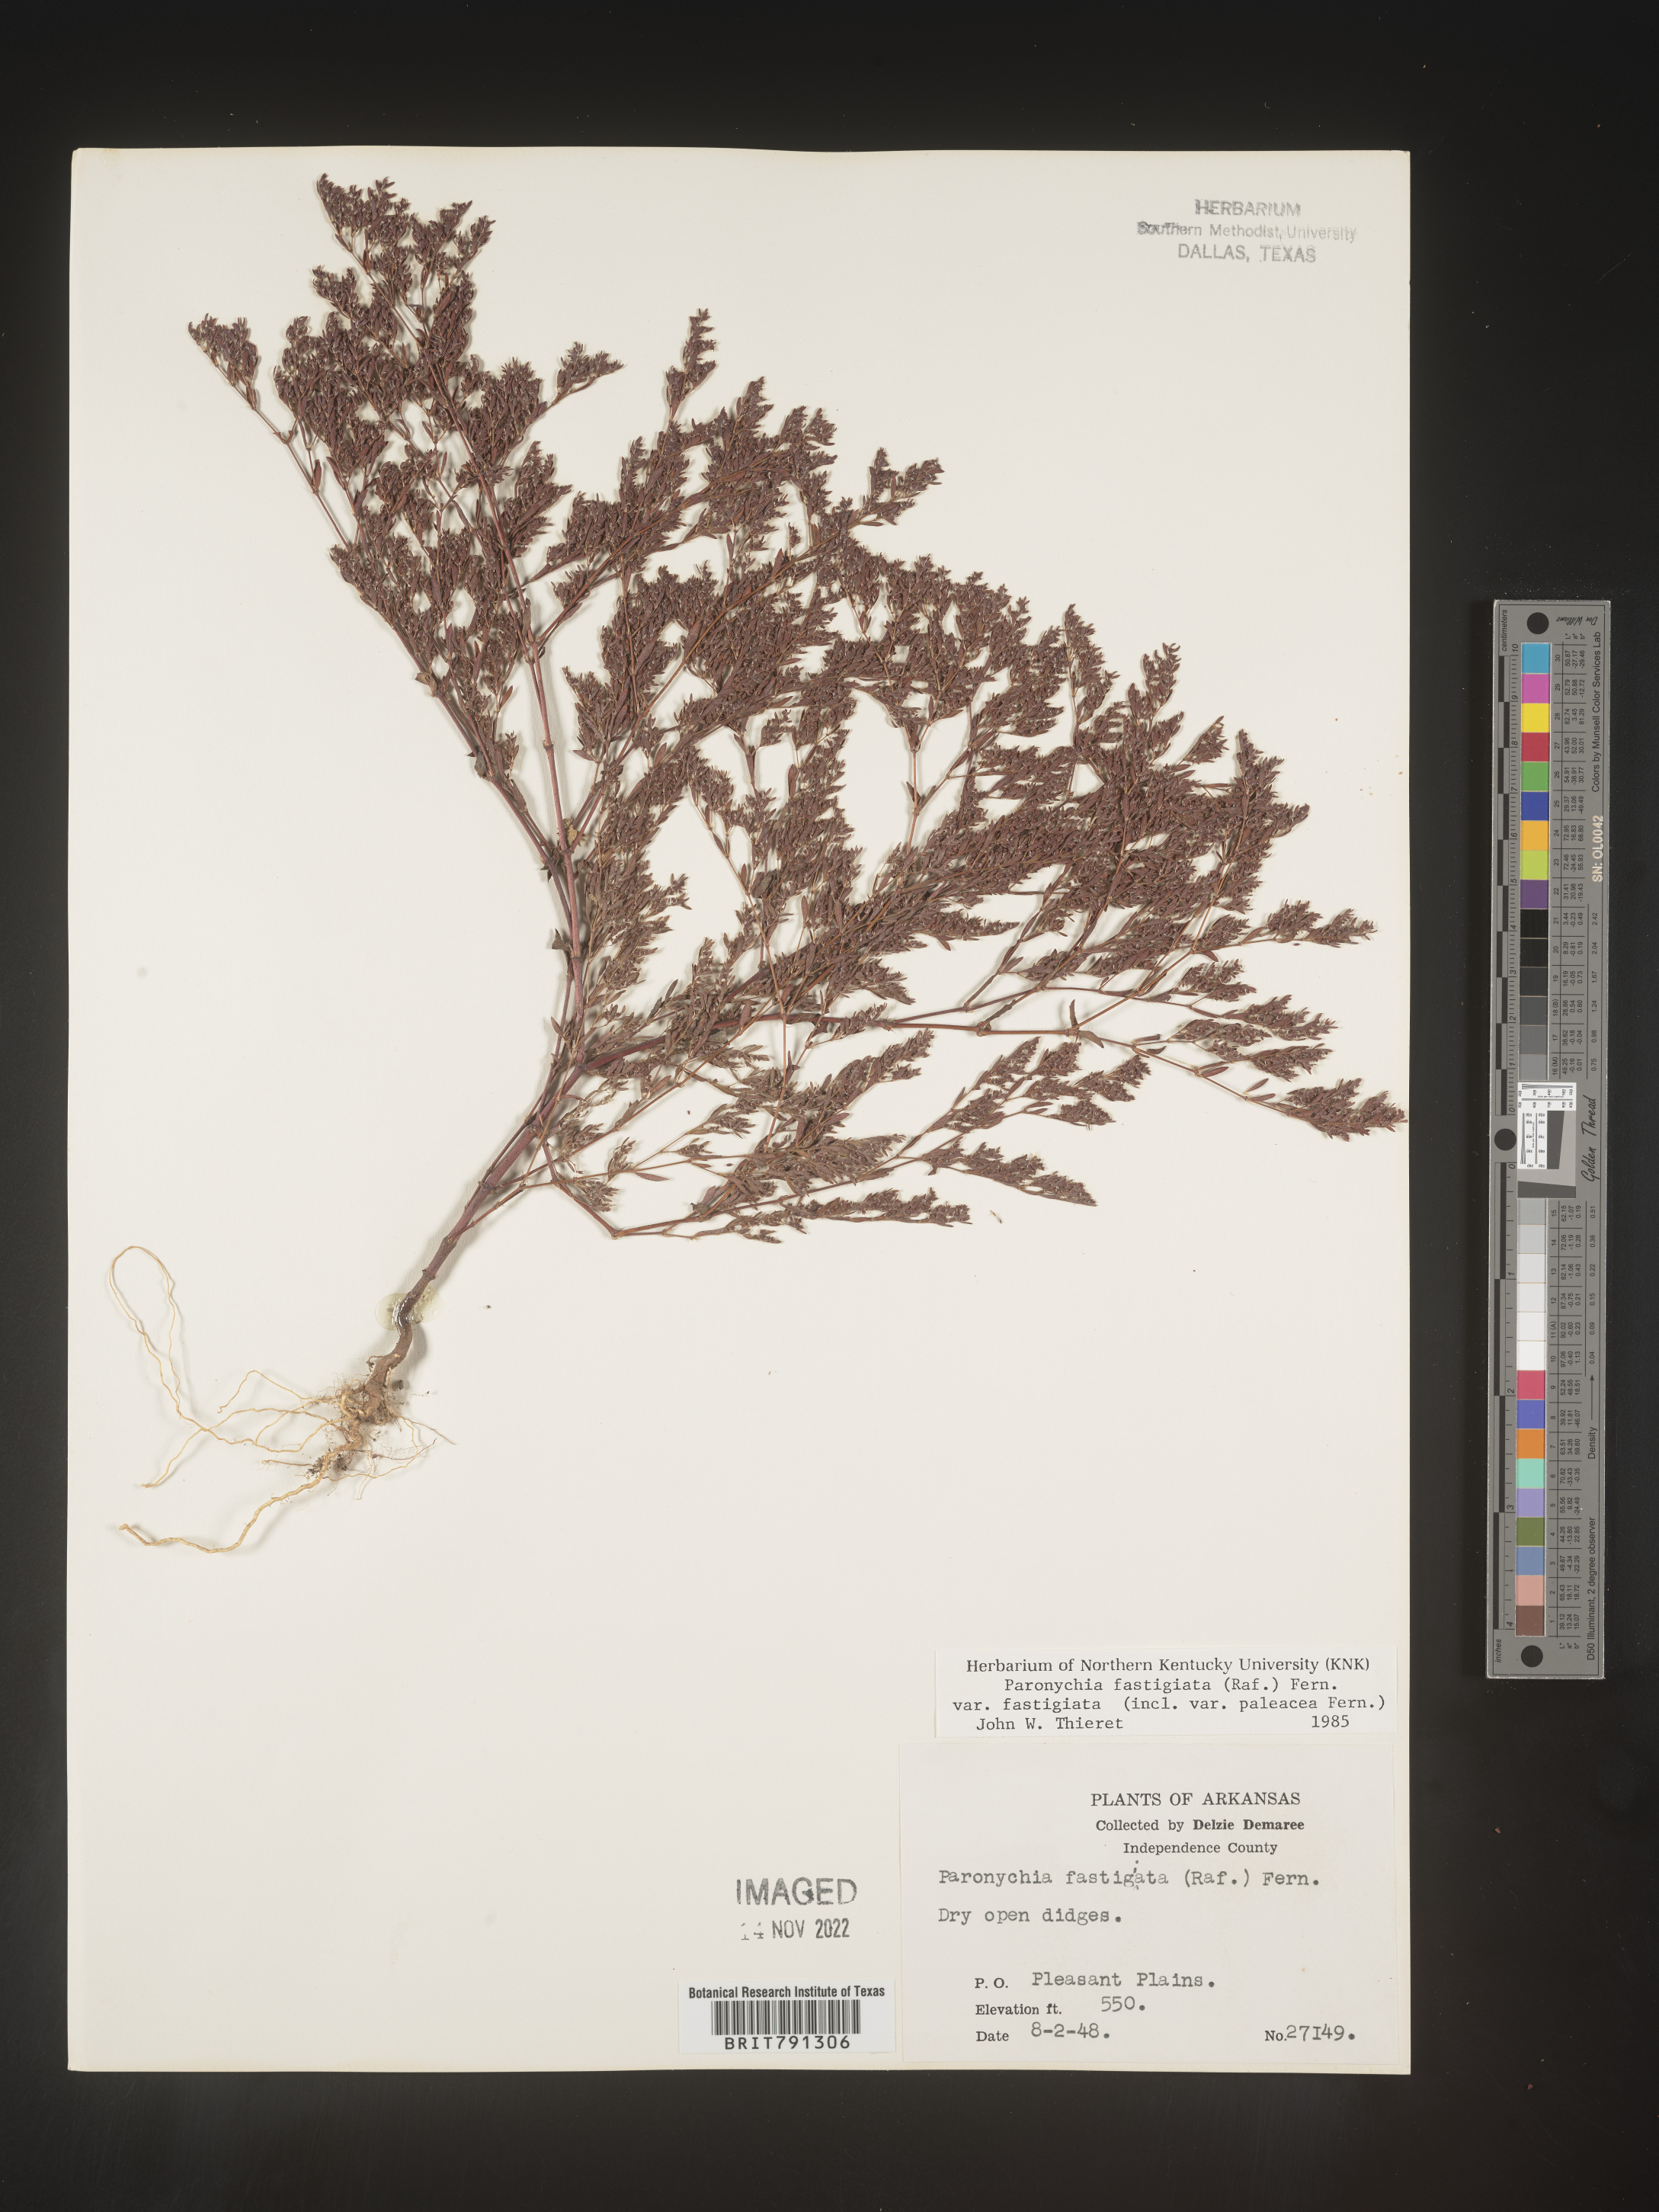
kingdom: Plantae
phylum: Tracheophyta
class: Magnoliopsida
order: Caryophyllales
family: Caryophyllaceae
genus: Paronychia
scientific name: Paronychia fastigiata
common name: Branching forked whitlow-wort
